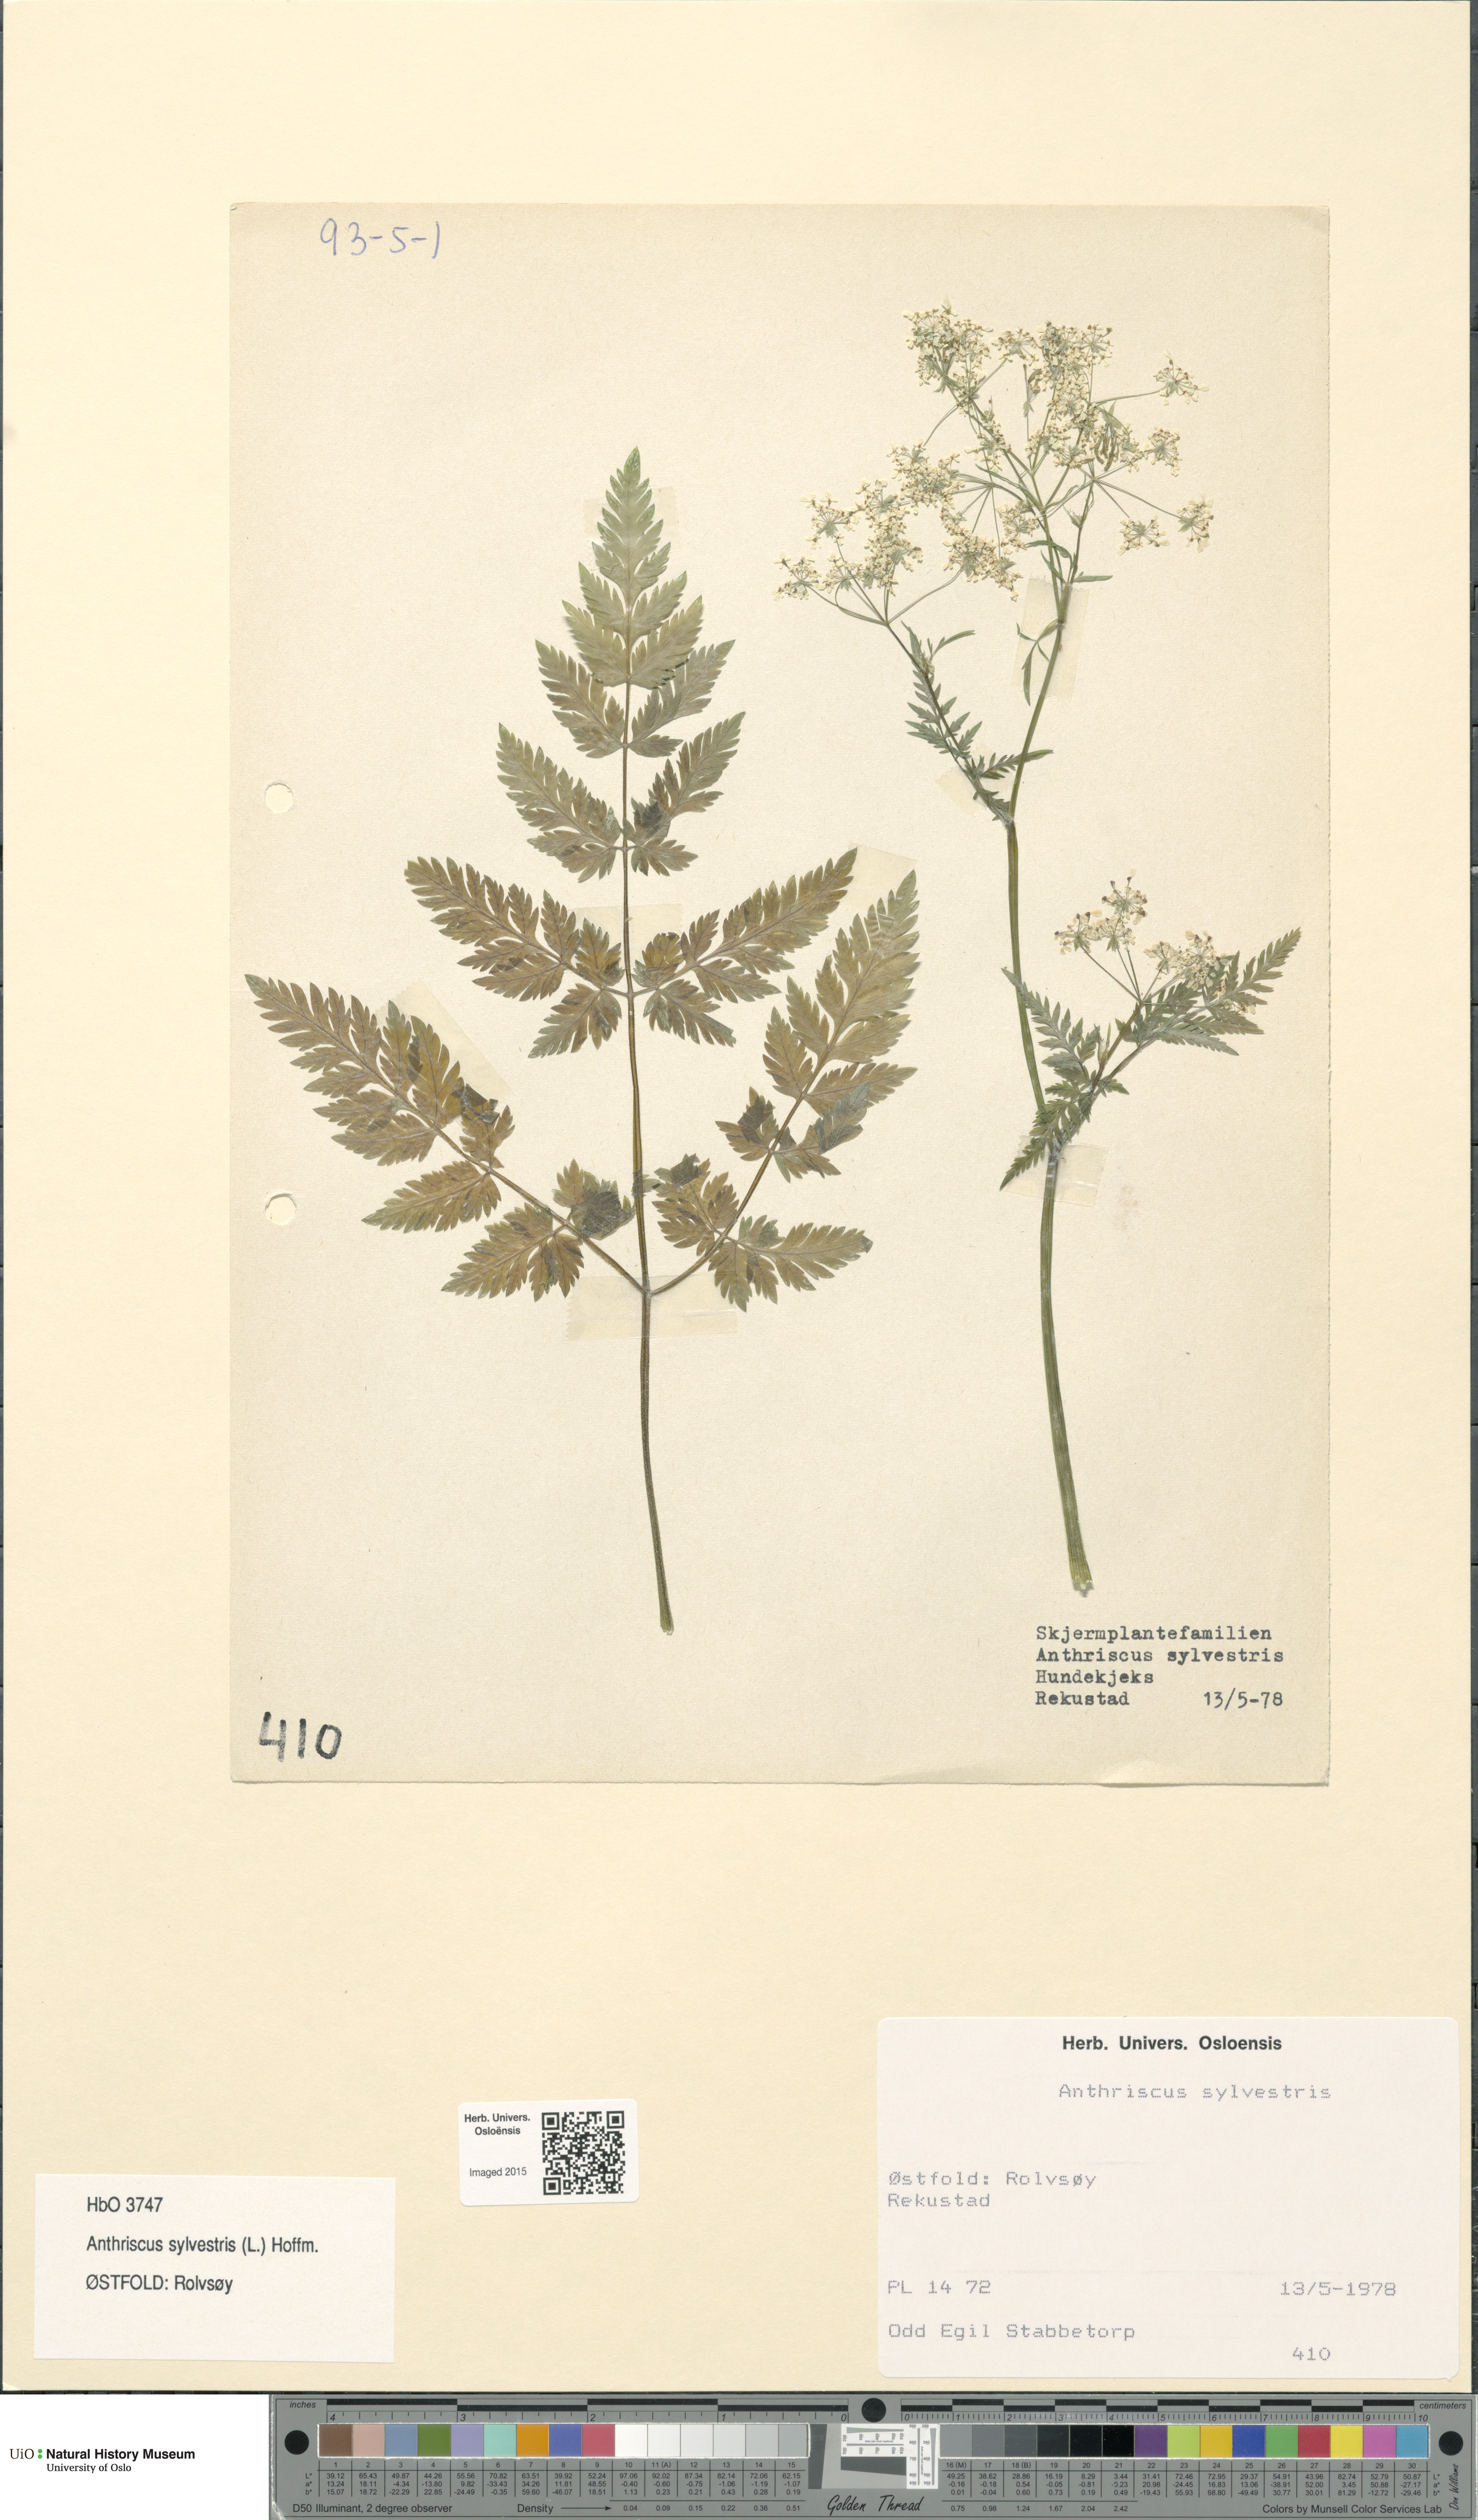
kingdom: Plantae
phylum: Tracheophyta
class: Magnoliopsida
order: Apiales
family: Apiaceae
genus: Anthriscus
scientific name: Anthriscus sylvestris
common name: Cow parsley
